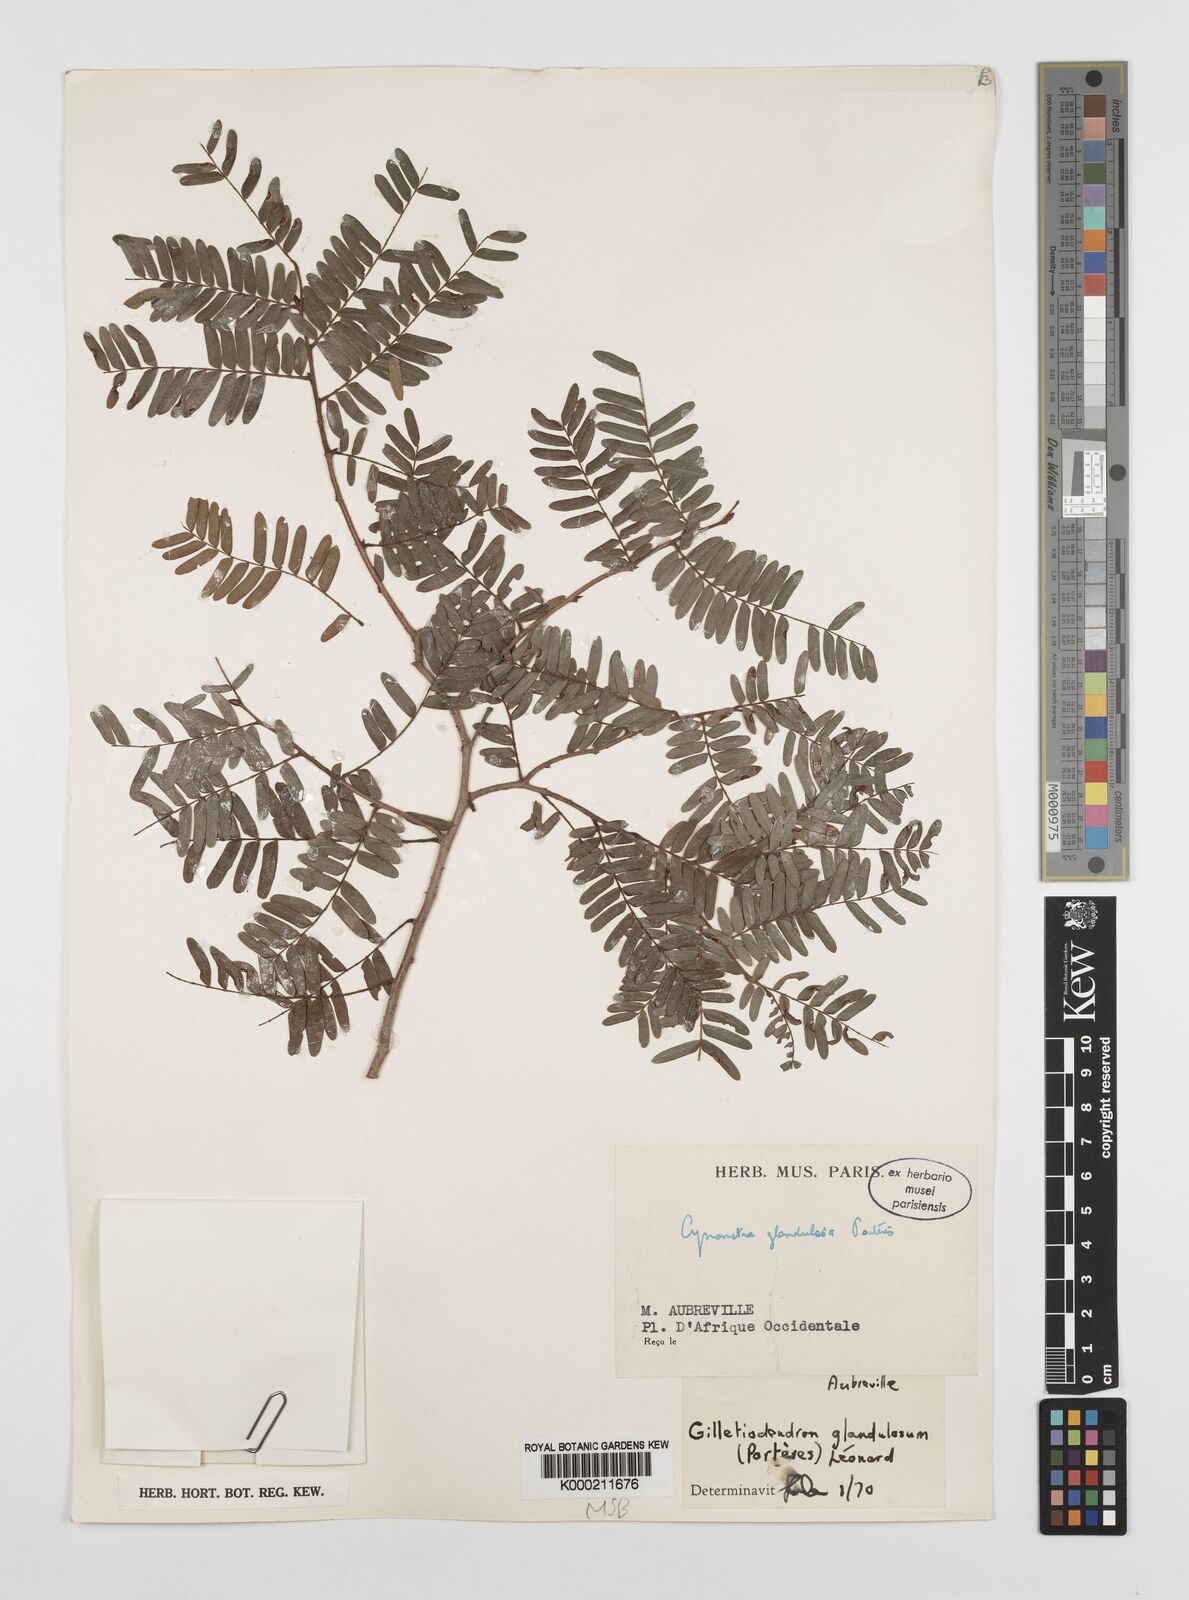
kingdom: Plantae
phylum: Tracheophyta
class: Magnoliopsida
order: Fabales
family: Fabaceae
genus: Gilletiodendron
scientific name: Gilletiodendron
